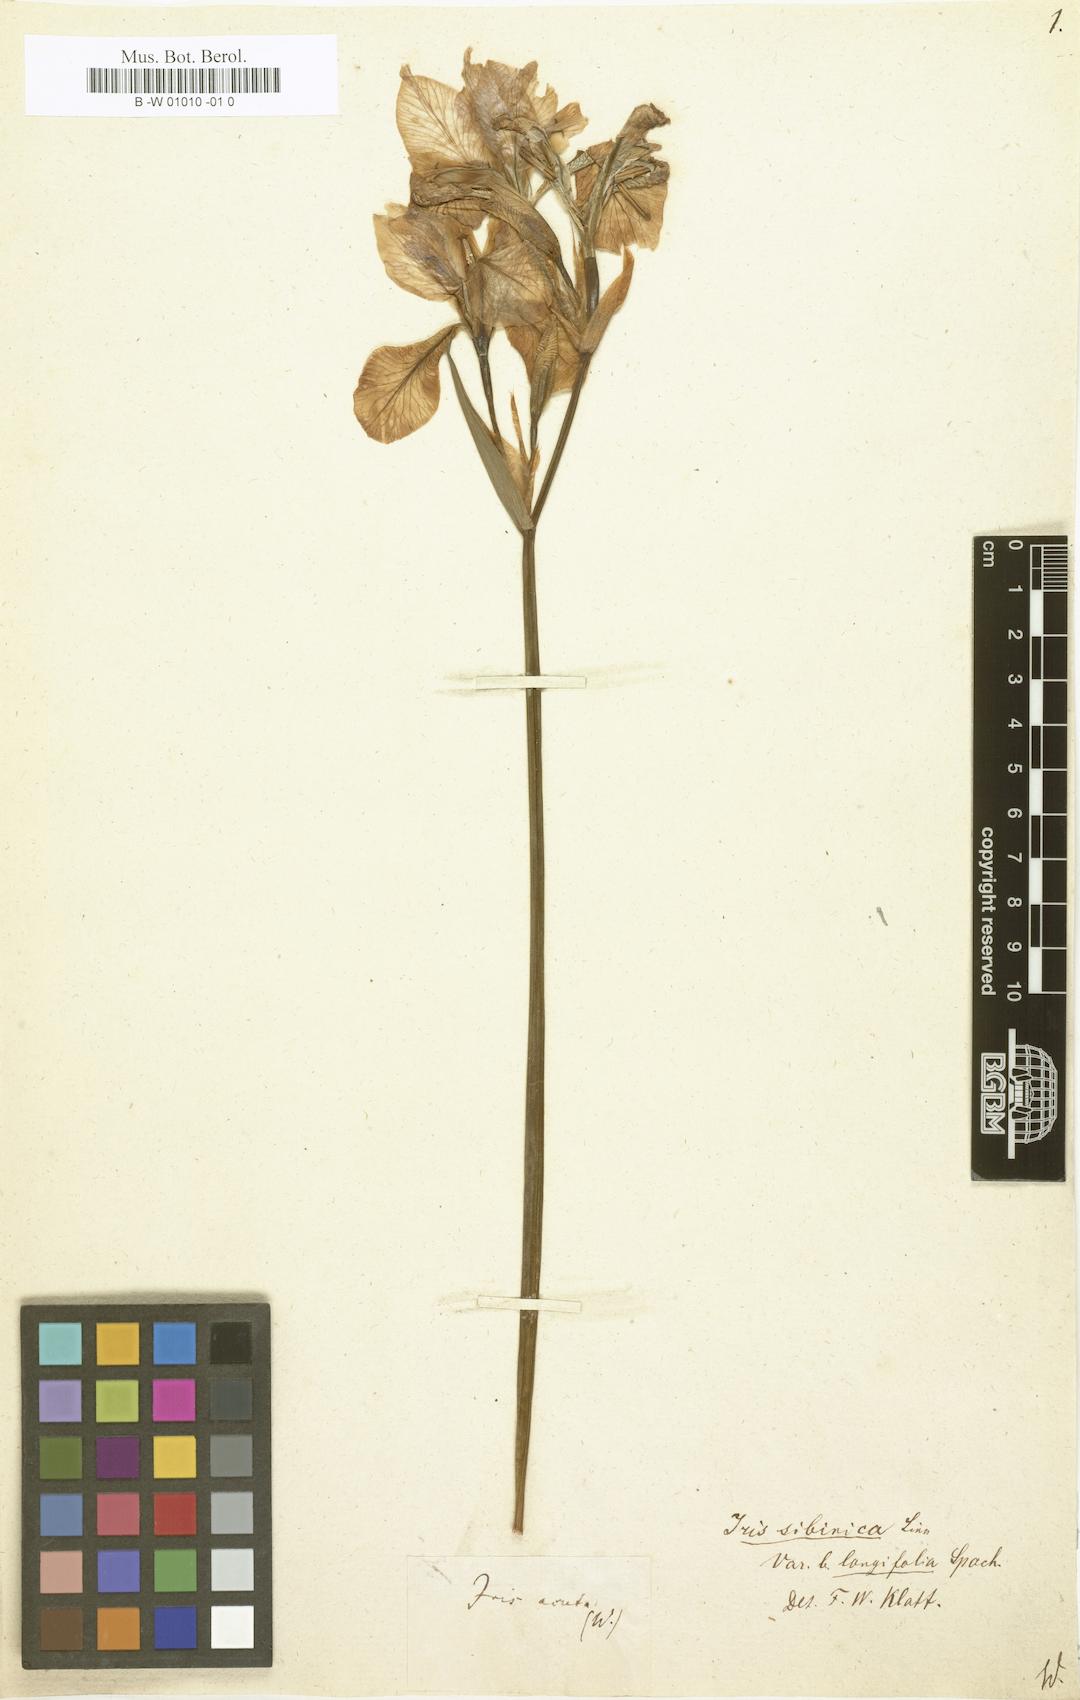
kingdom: Plantae
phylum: Tracheophyta
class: Liliopsida
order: Asparagales
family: Iridaceae
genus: Iris
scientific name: Iris sibirica
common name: Siberian iris
